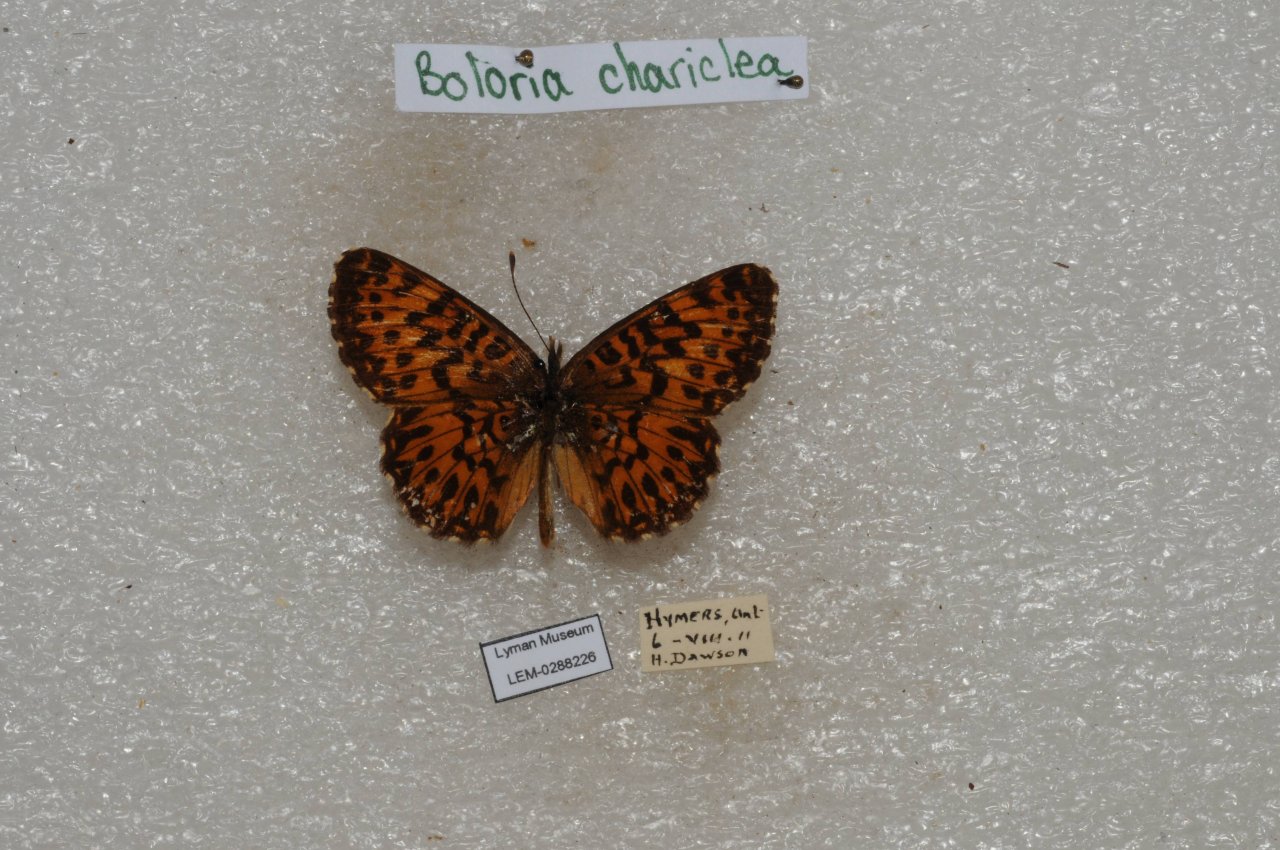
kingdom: Animalia
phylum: Arthropoda
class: Insecta
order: Lepidoptera
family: Nymphalidae
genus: Boloria
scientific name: Boloria chariclea
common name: Arctic Fritillary
